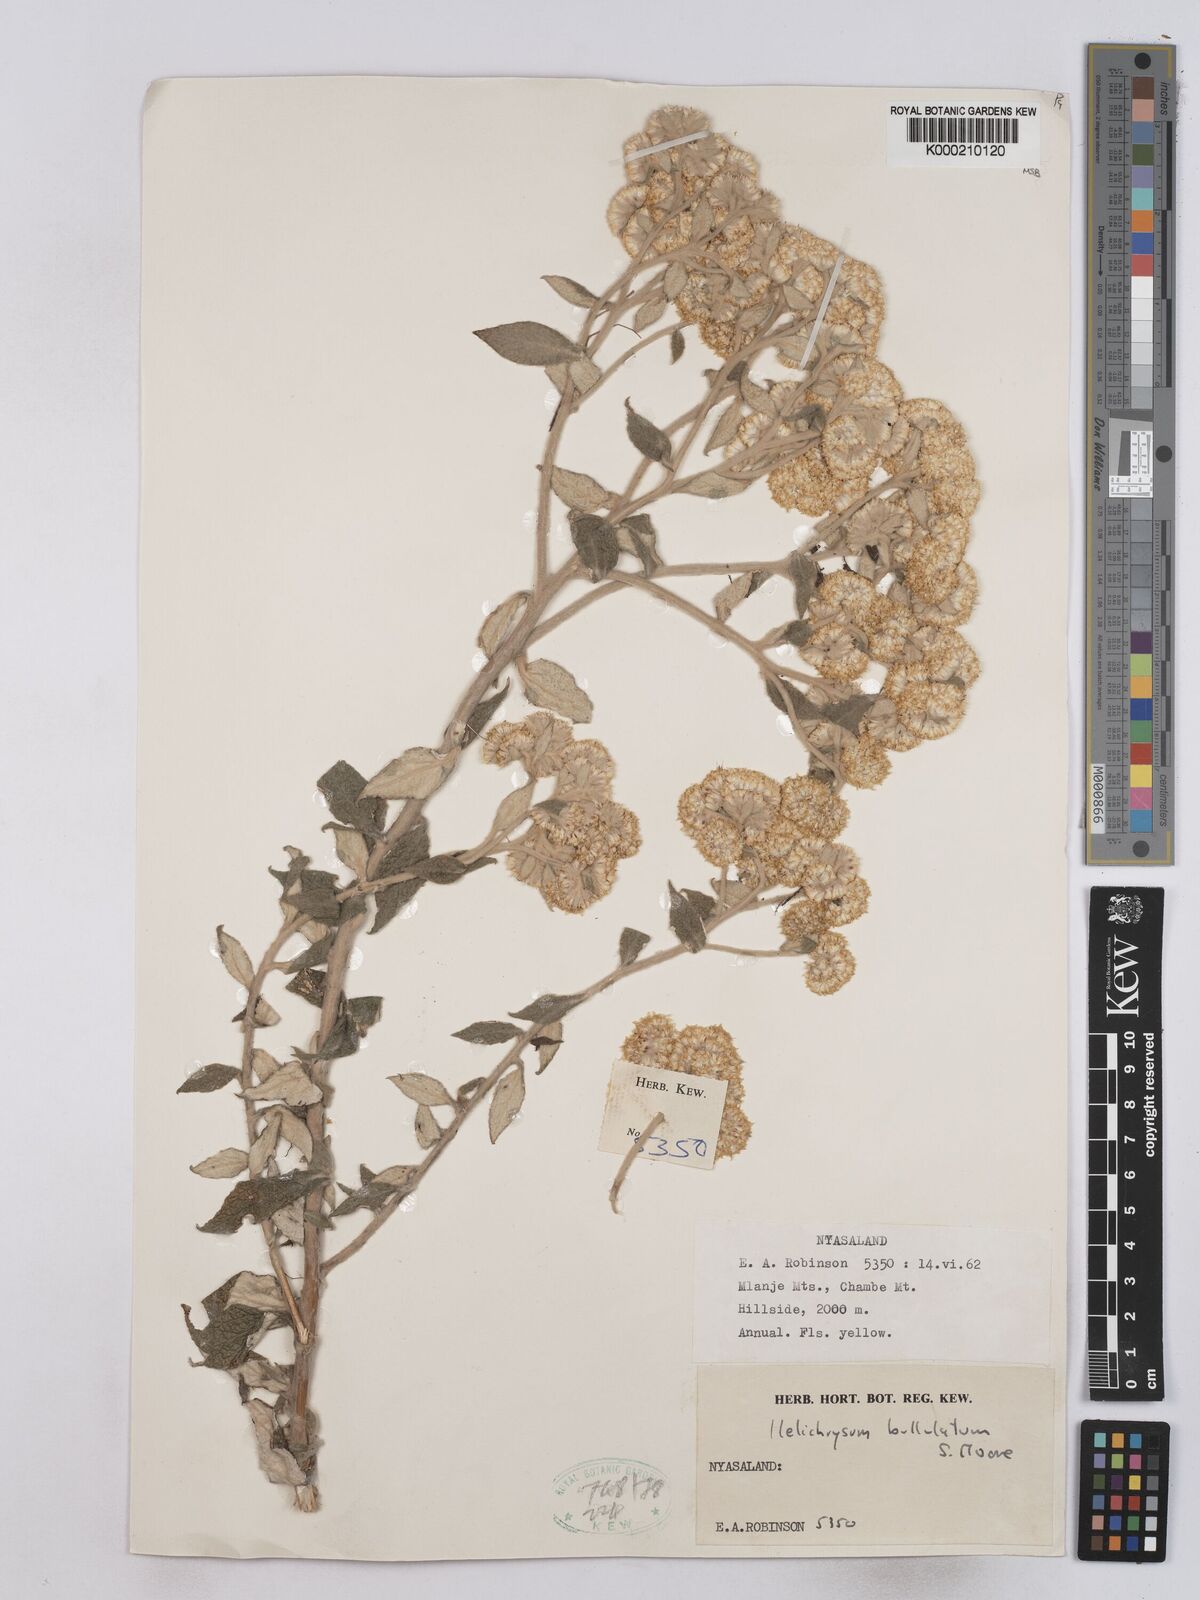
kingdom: Plantae
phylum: Tracheophyta
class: Magnoliopsida
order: Asterales
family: Asteraceae
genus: Helichrysum
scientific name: Helichrysum bullulatum
